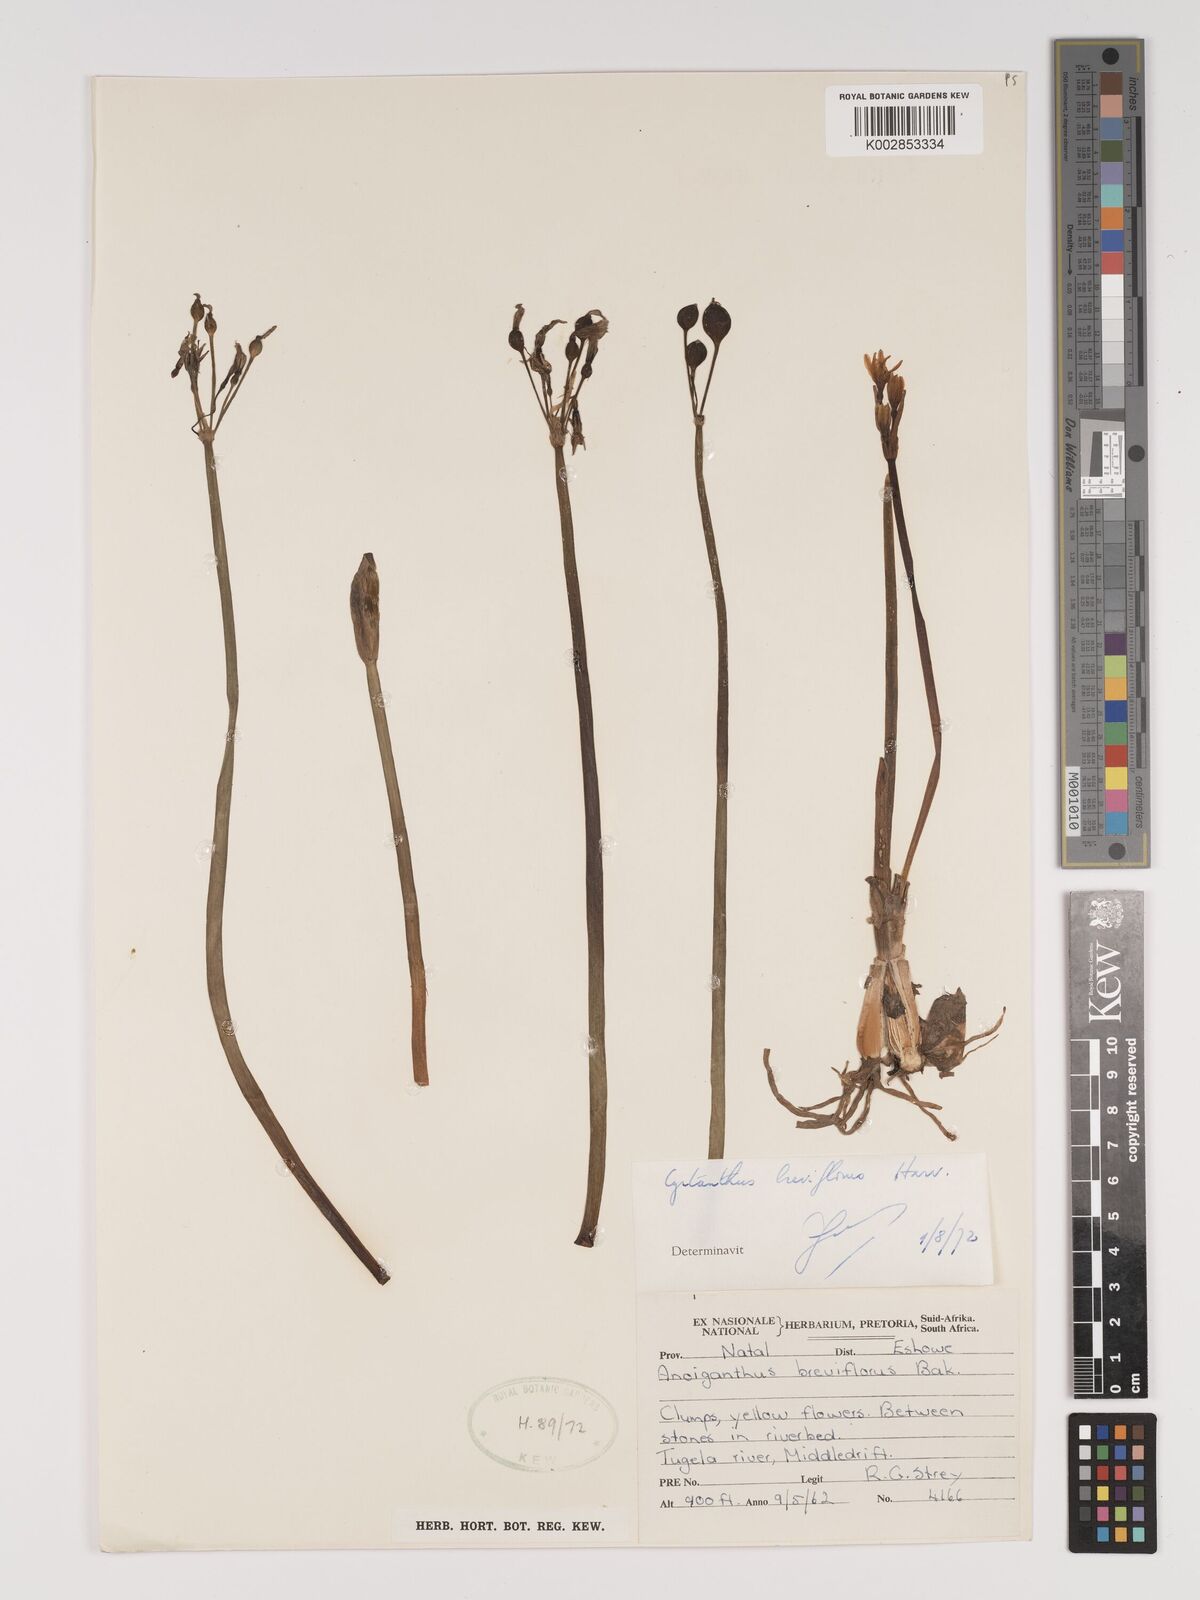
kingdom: Plantae
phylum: Tracheophyta
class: Liliopsida
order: Asparagales
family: Amaryllidaceae
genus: Cyrtanthus
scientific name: Cyrtanthus breviflorus
